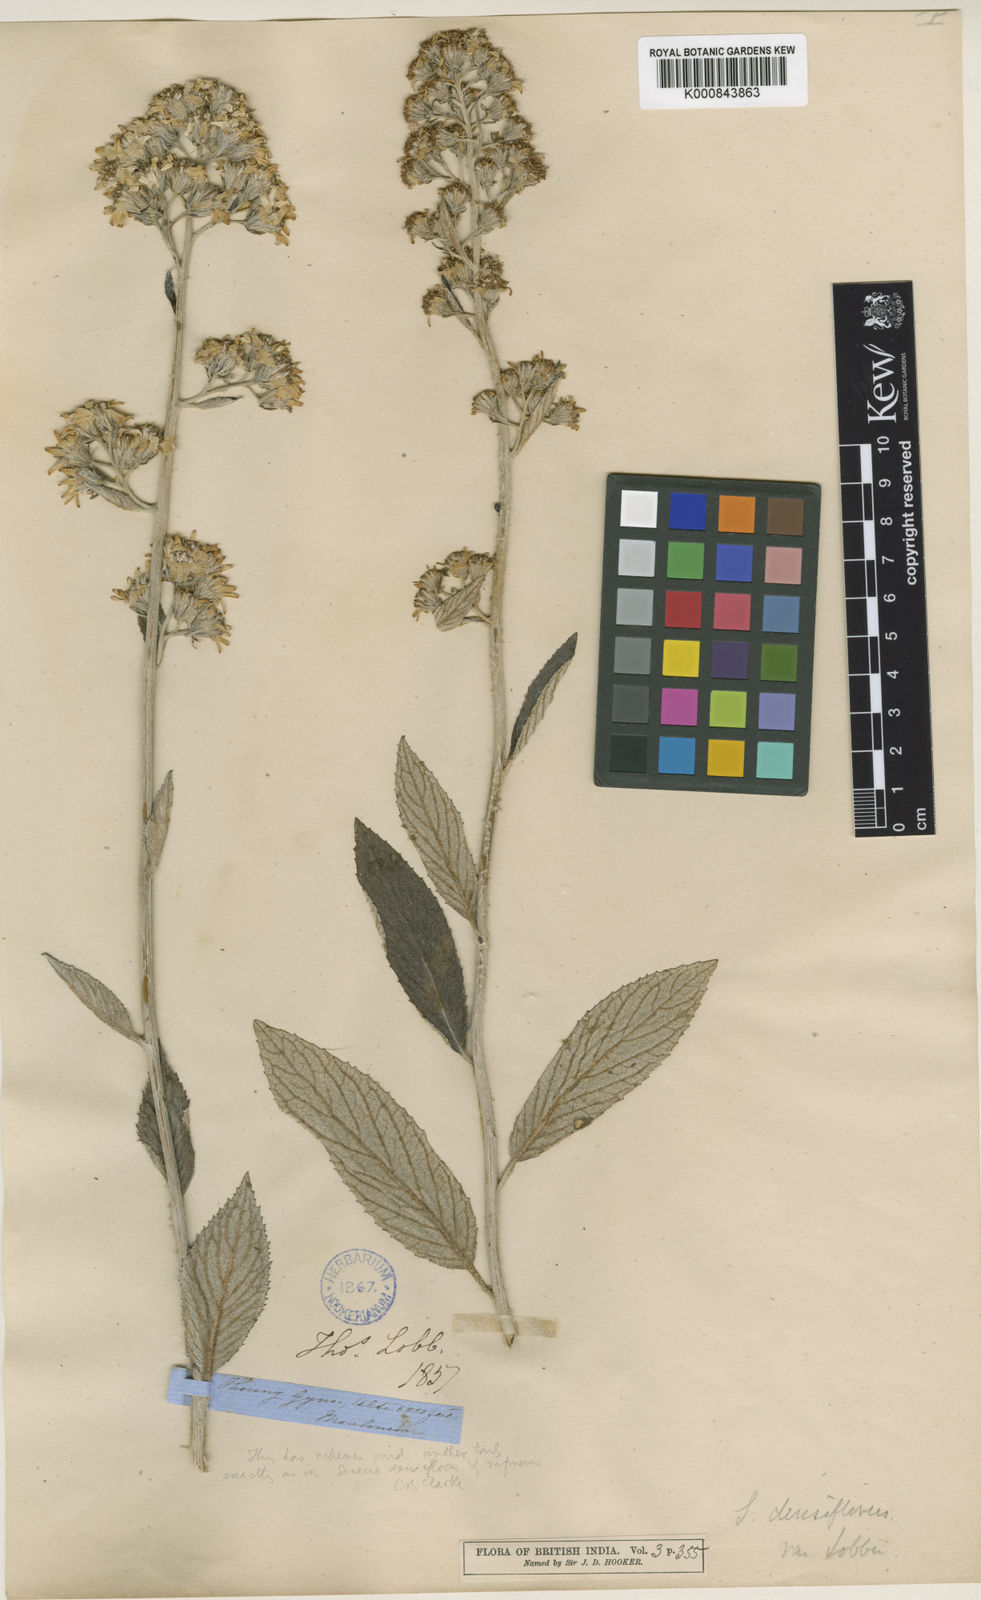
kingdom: Plantae
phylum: Tracheophyta
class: Magnoliopsida
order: Asterales
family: Asteraceae
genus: Synotis
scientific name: Synotis cappa
